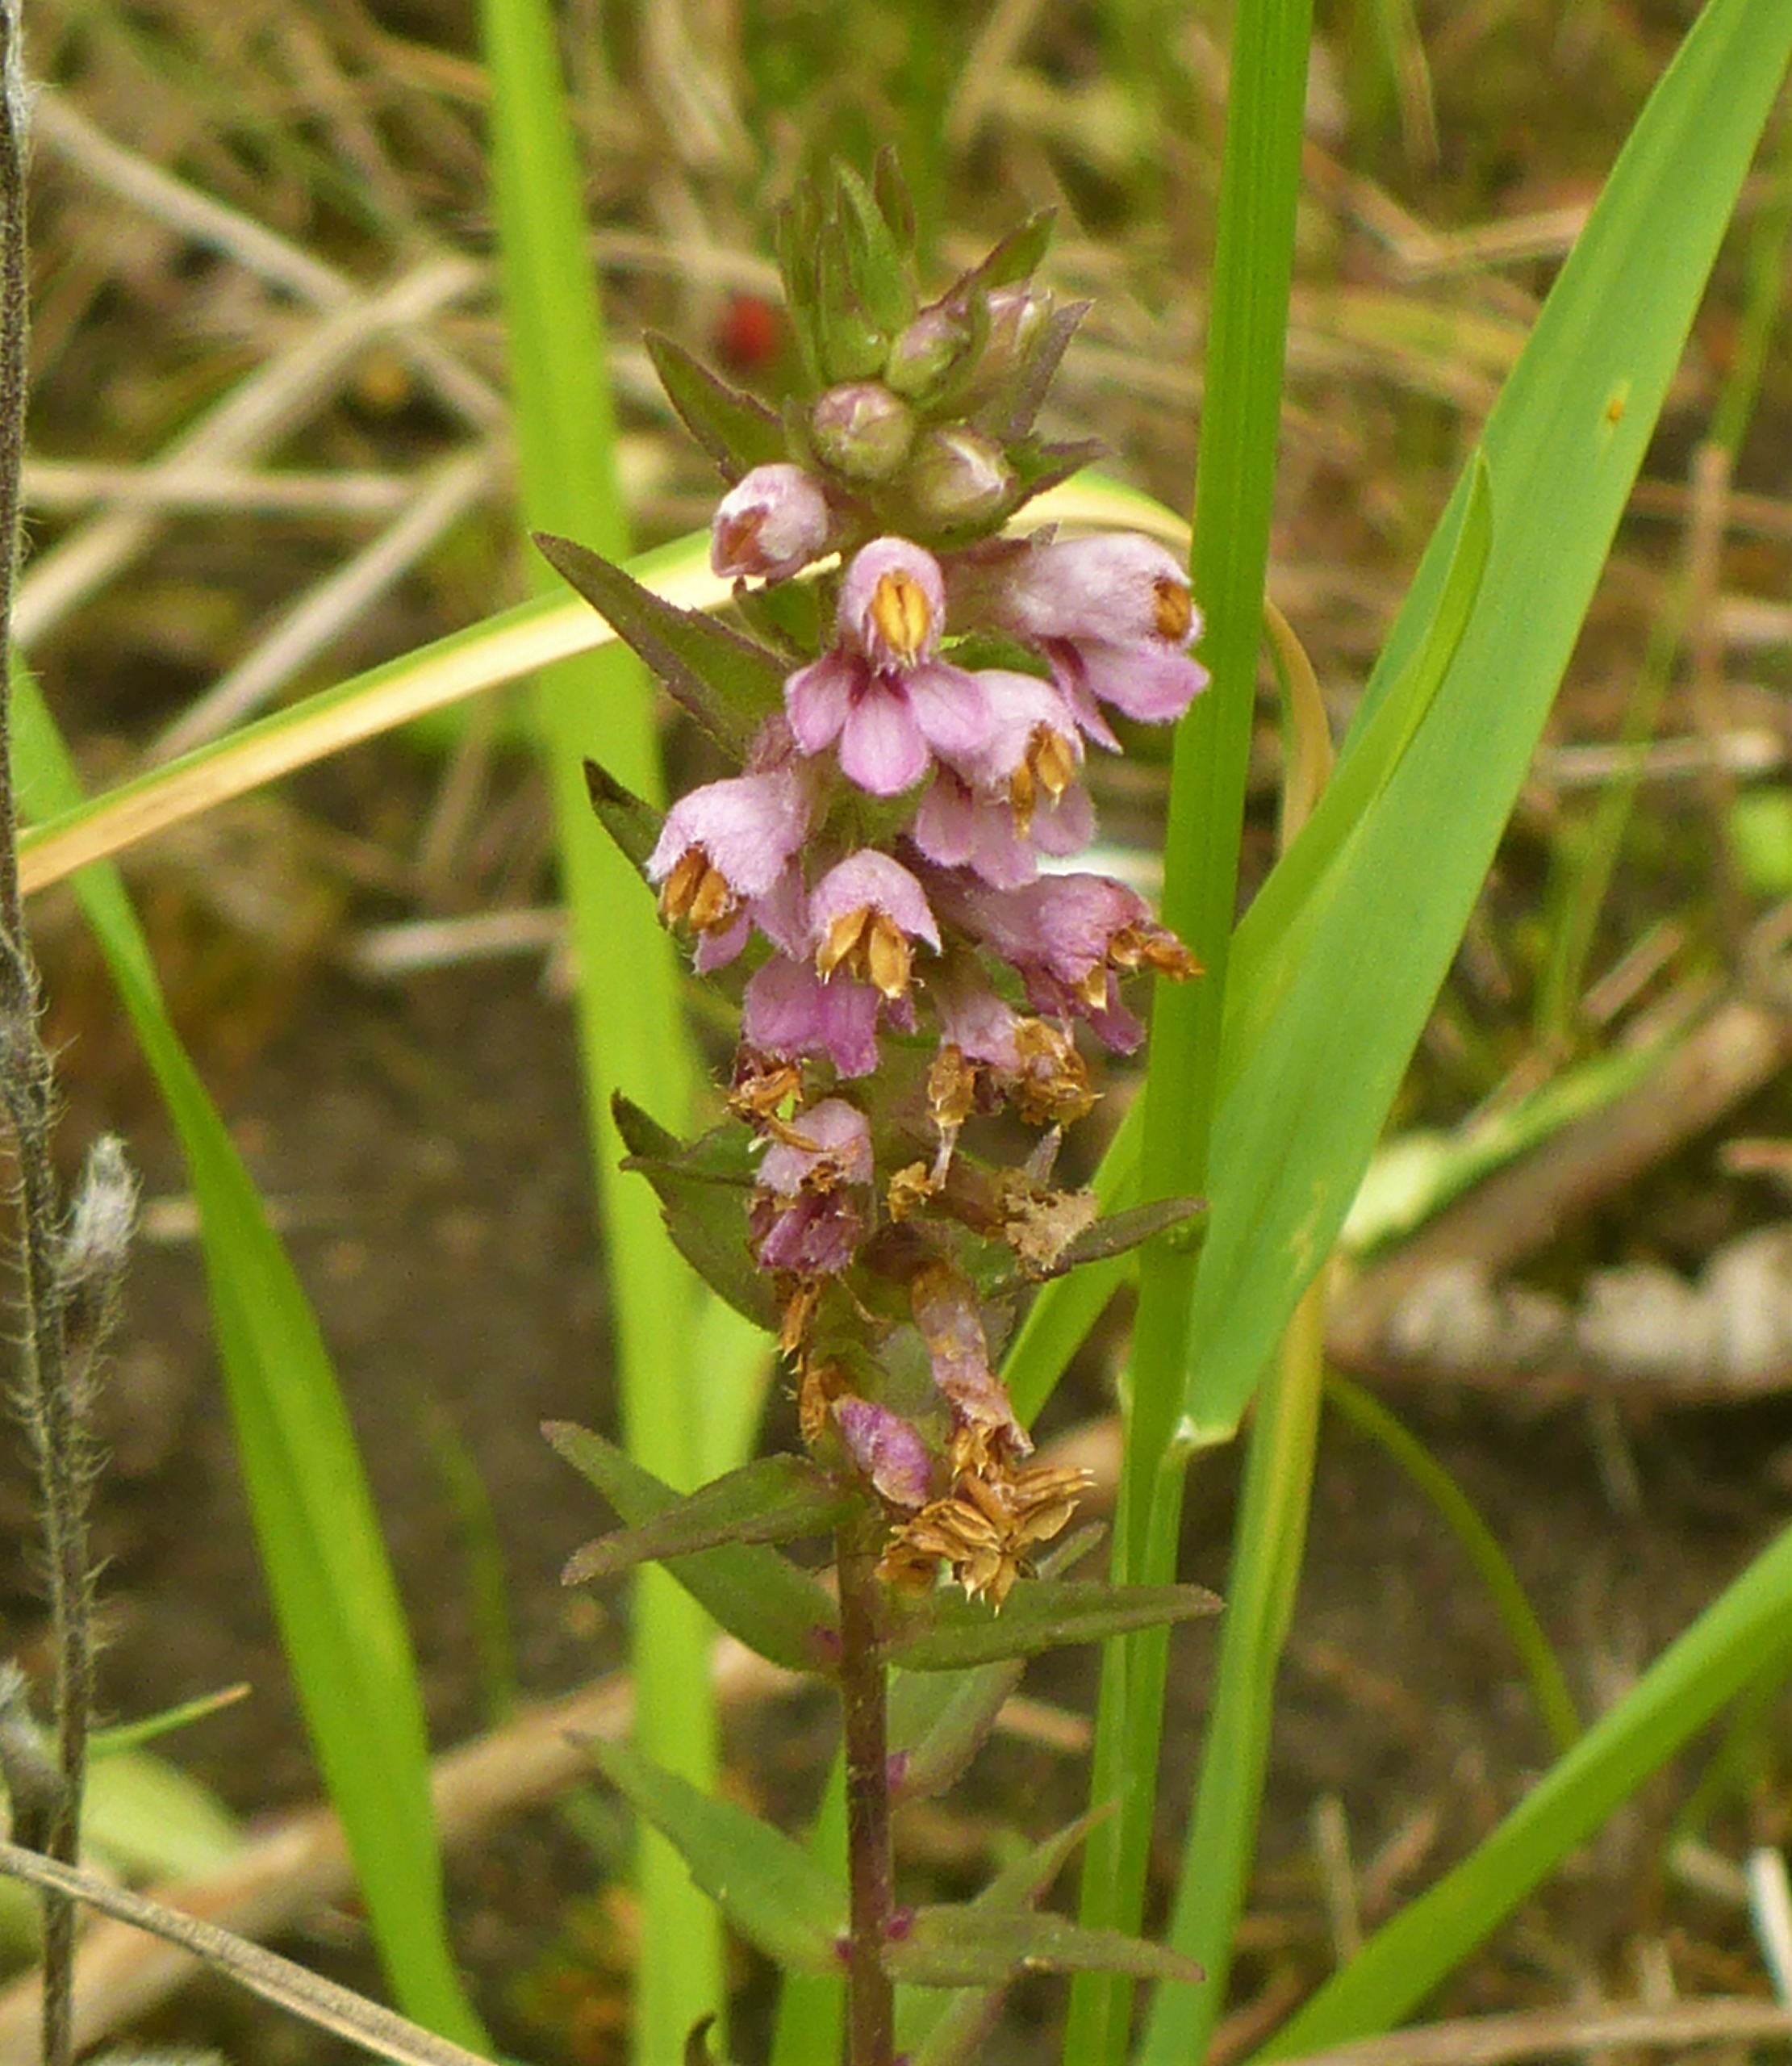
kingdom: Plantae
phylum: Tracheophyta
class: Magnoliopsida
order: Lamiales
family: Orobanchaceae
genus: Odontites
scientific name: Odontites
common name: Rødtopslægten
